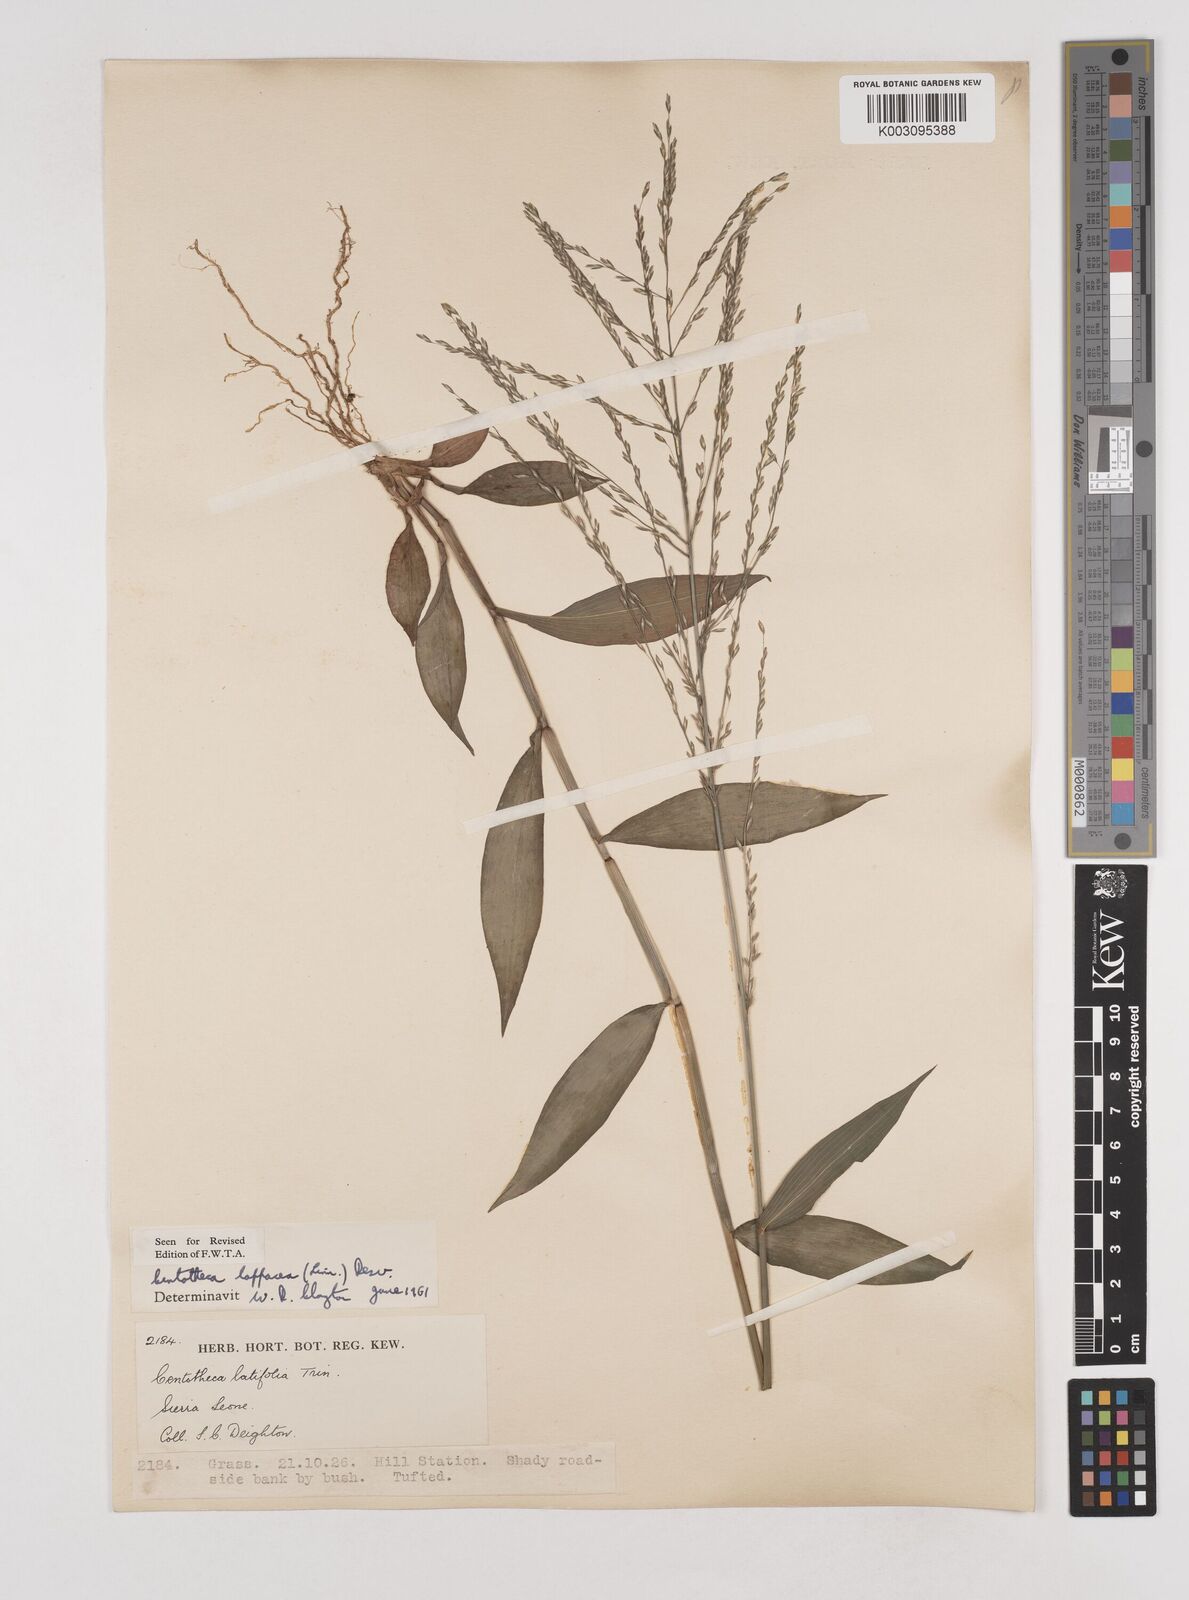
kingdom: Plantae
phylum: Tracheophyta
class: Liliopsida
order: Poales
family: Poaceae
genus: Centotheca
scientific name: Centotheca lappacea
